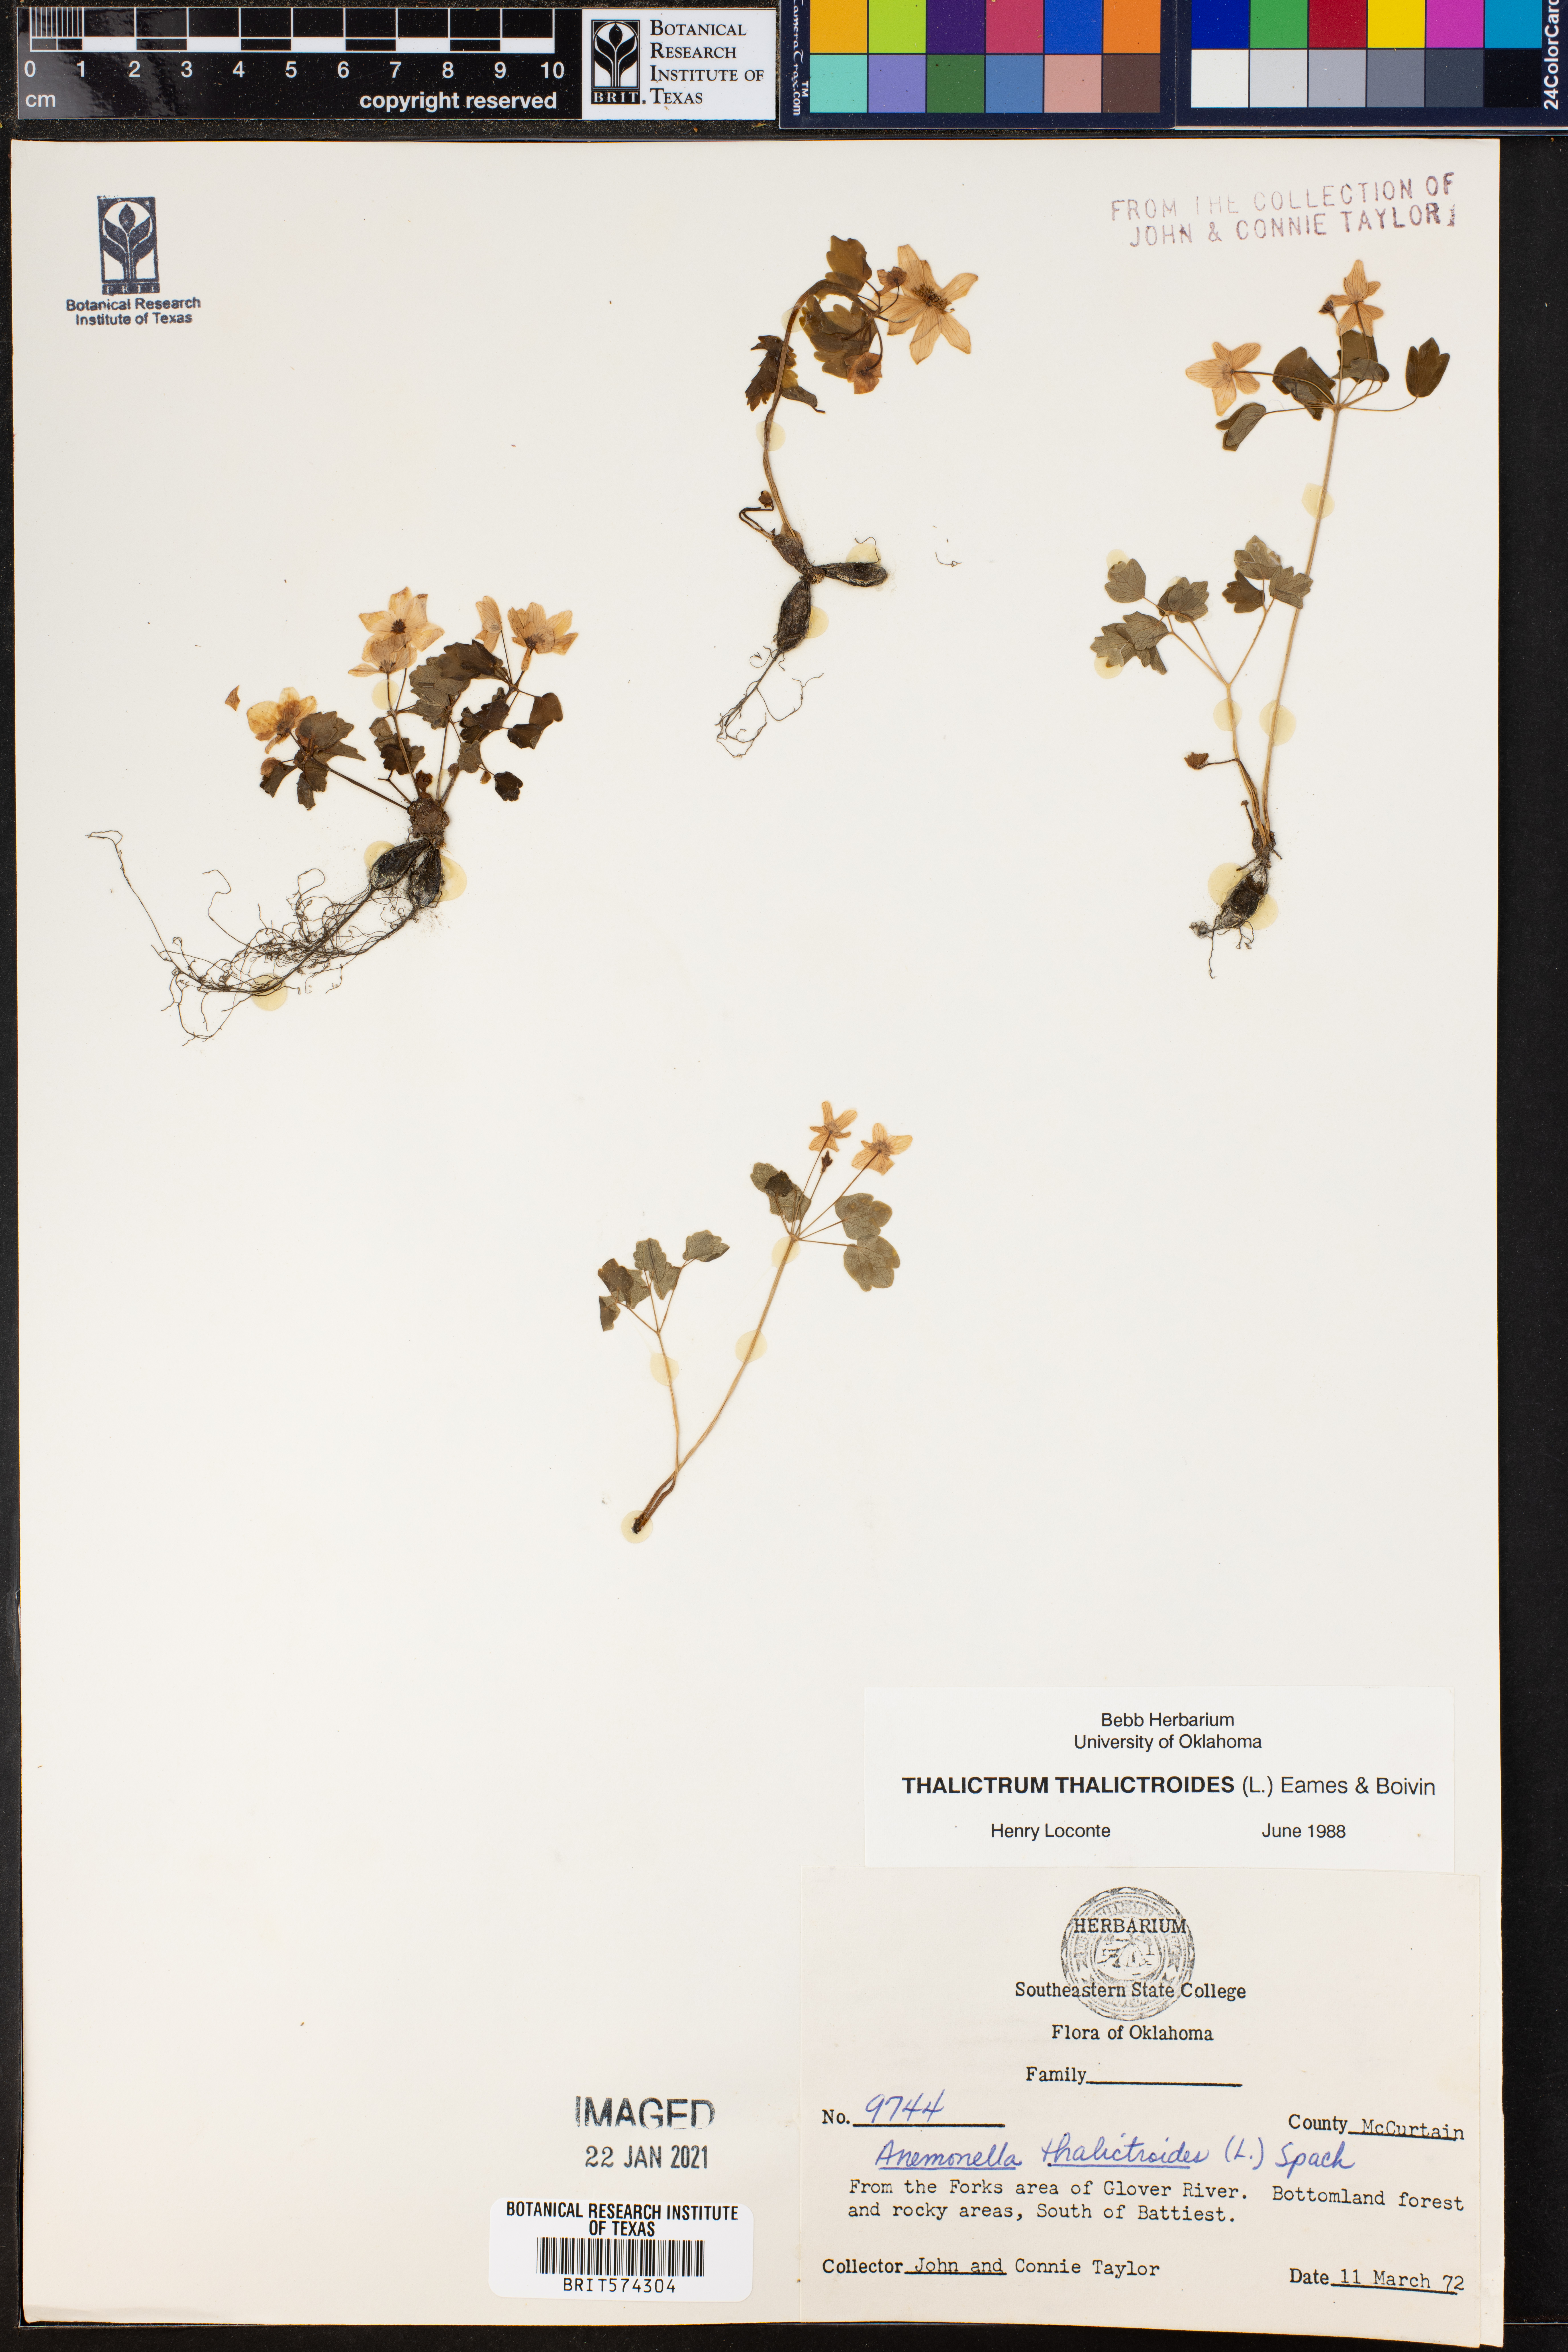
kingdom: Plantae
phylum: Tracheophyta
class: Magnoliopsida
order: Ranunculales
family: Ranunculaceae
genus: Thalictrum
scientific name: Thalictrum thalictroides
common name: Rue-anemone
